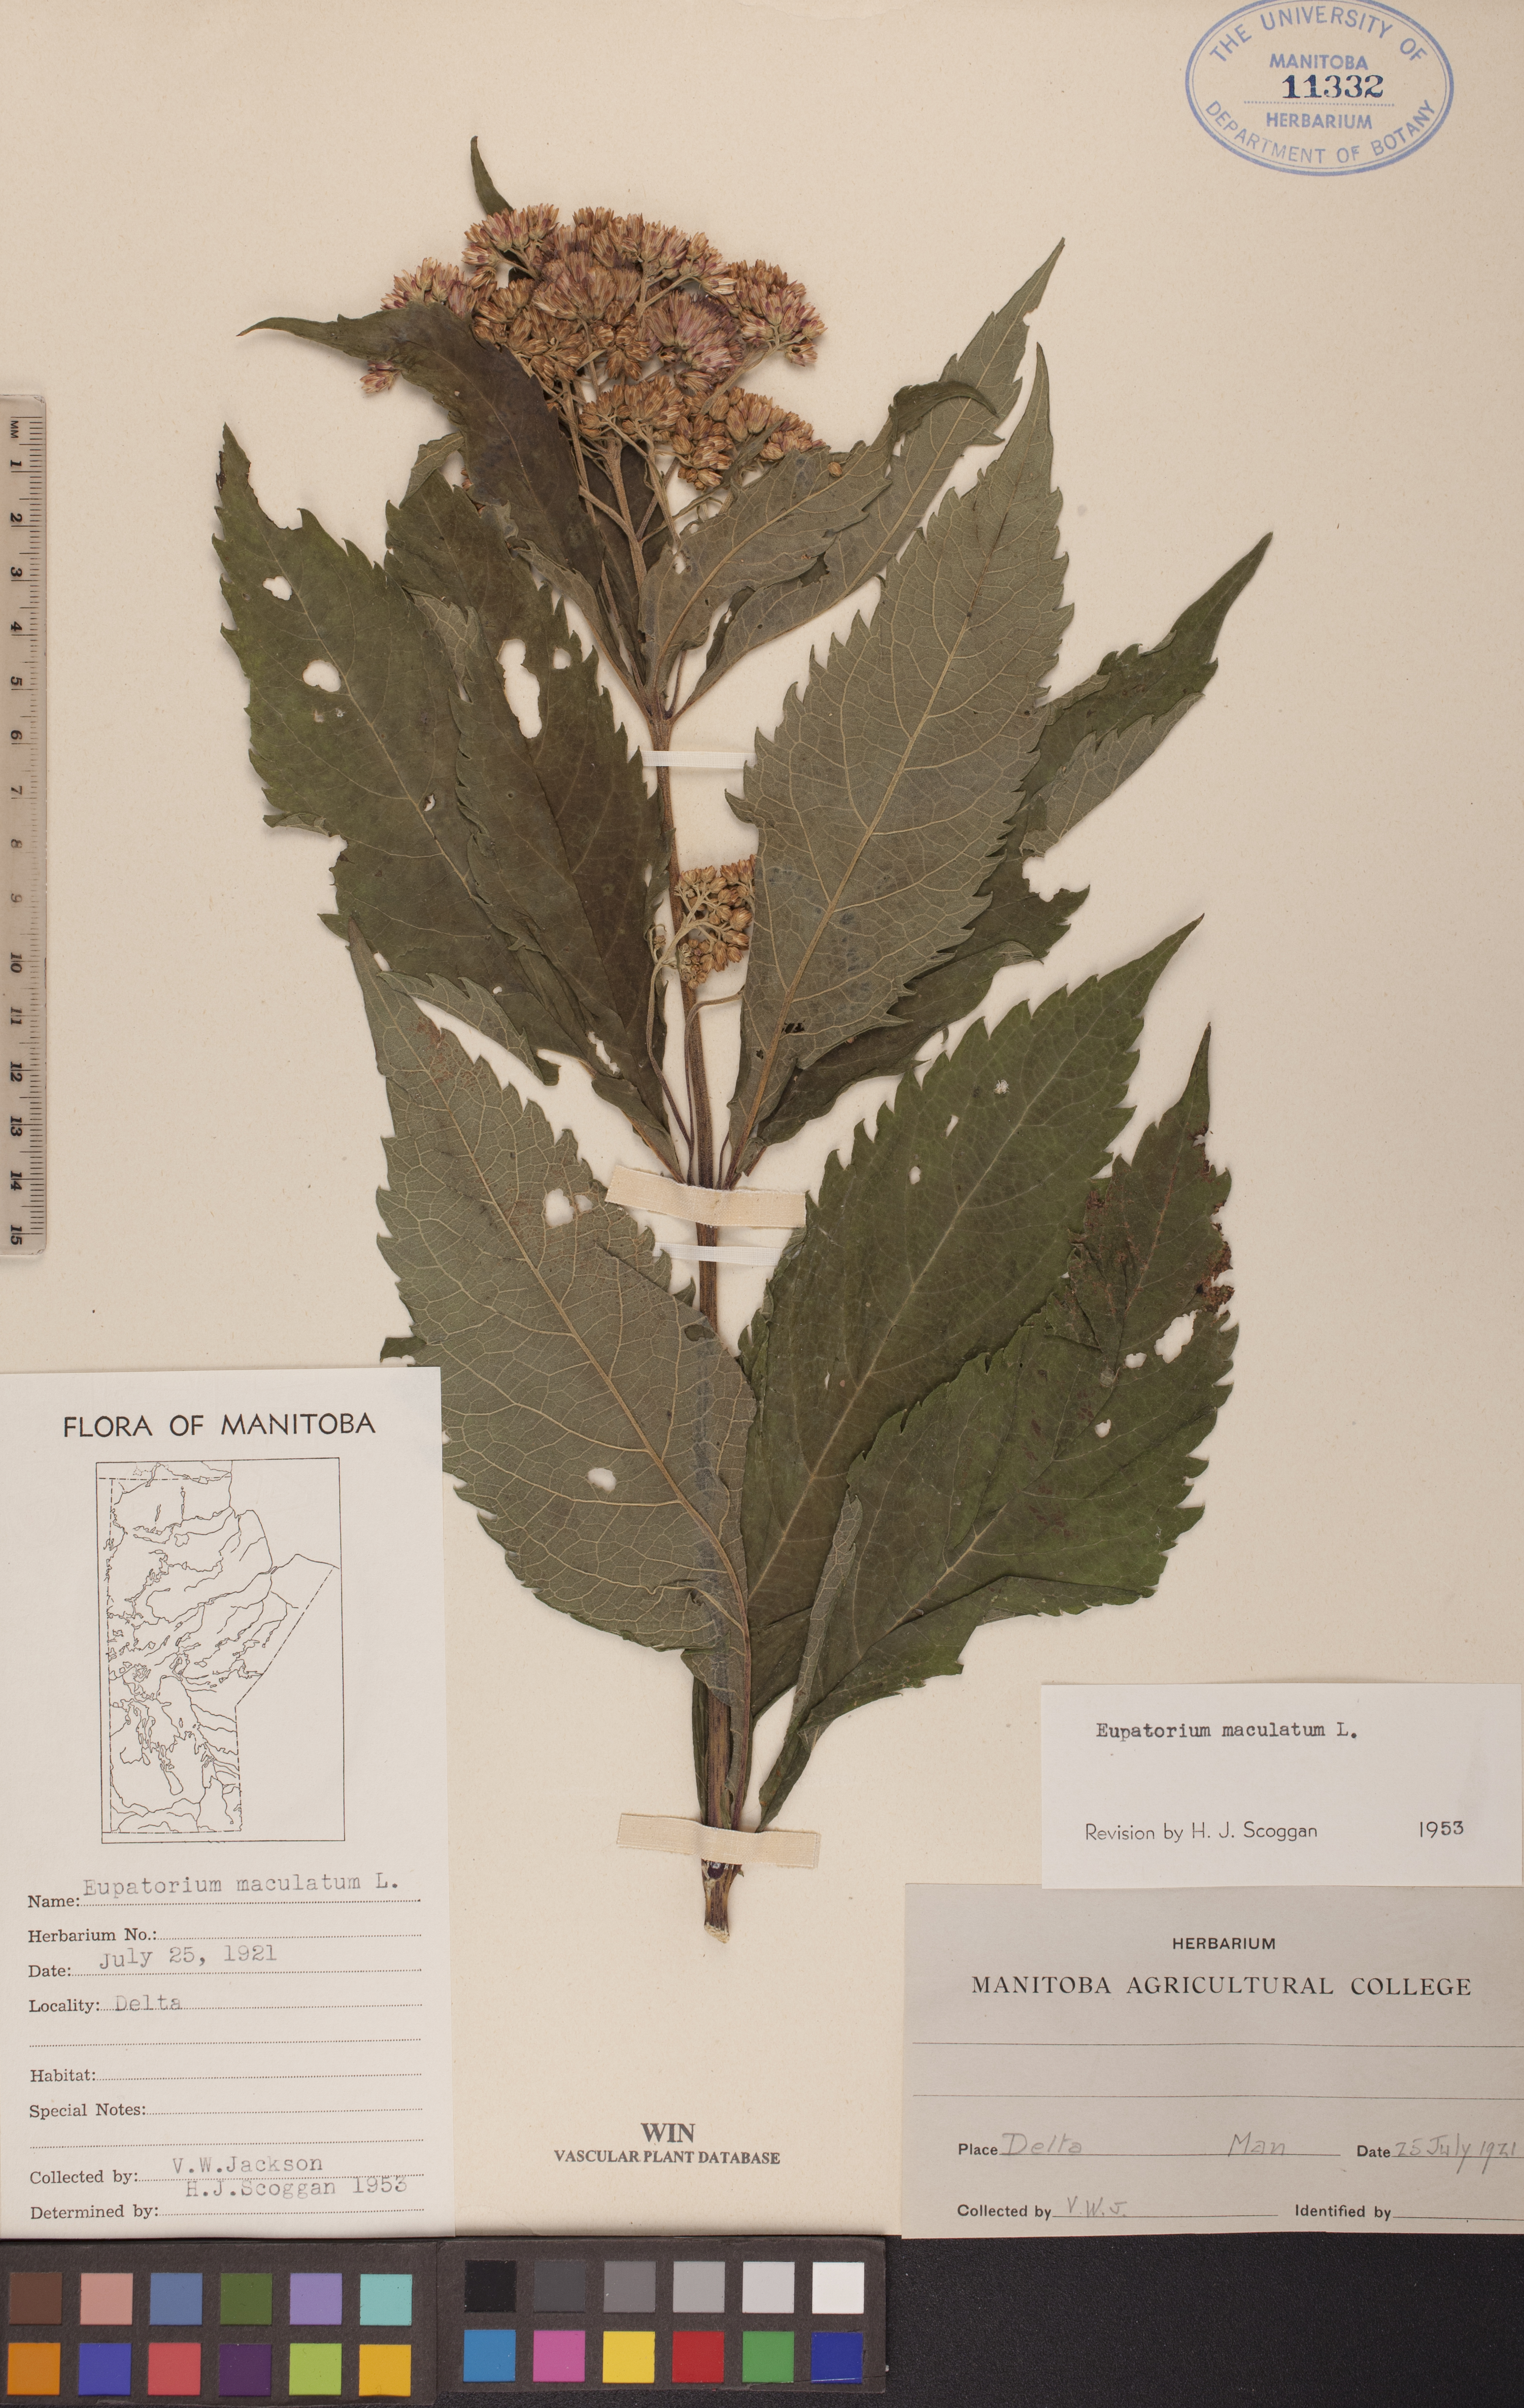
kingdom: Plantae
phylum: Tracheophyta
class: Magnoliopsida
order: Asterales
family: Asteraceae
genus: Eutrochium
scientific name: Eutrochium maculatum
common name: Spotted joe pye weed
